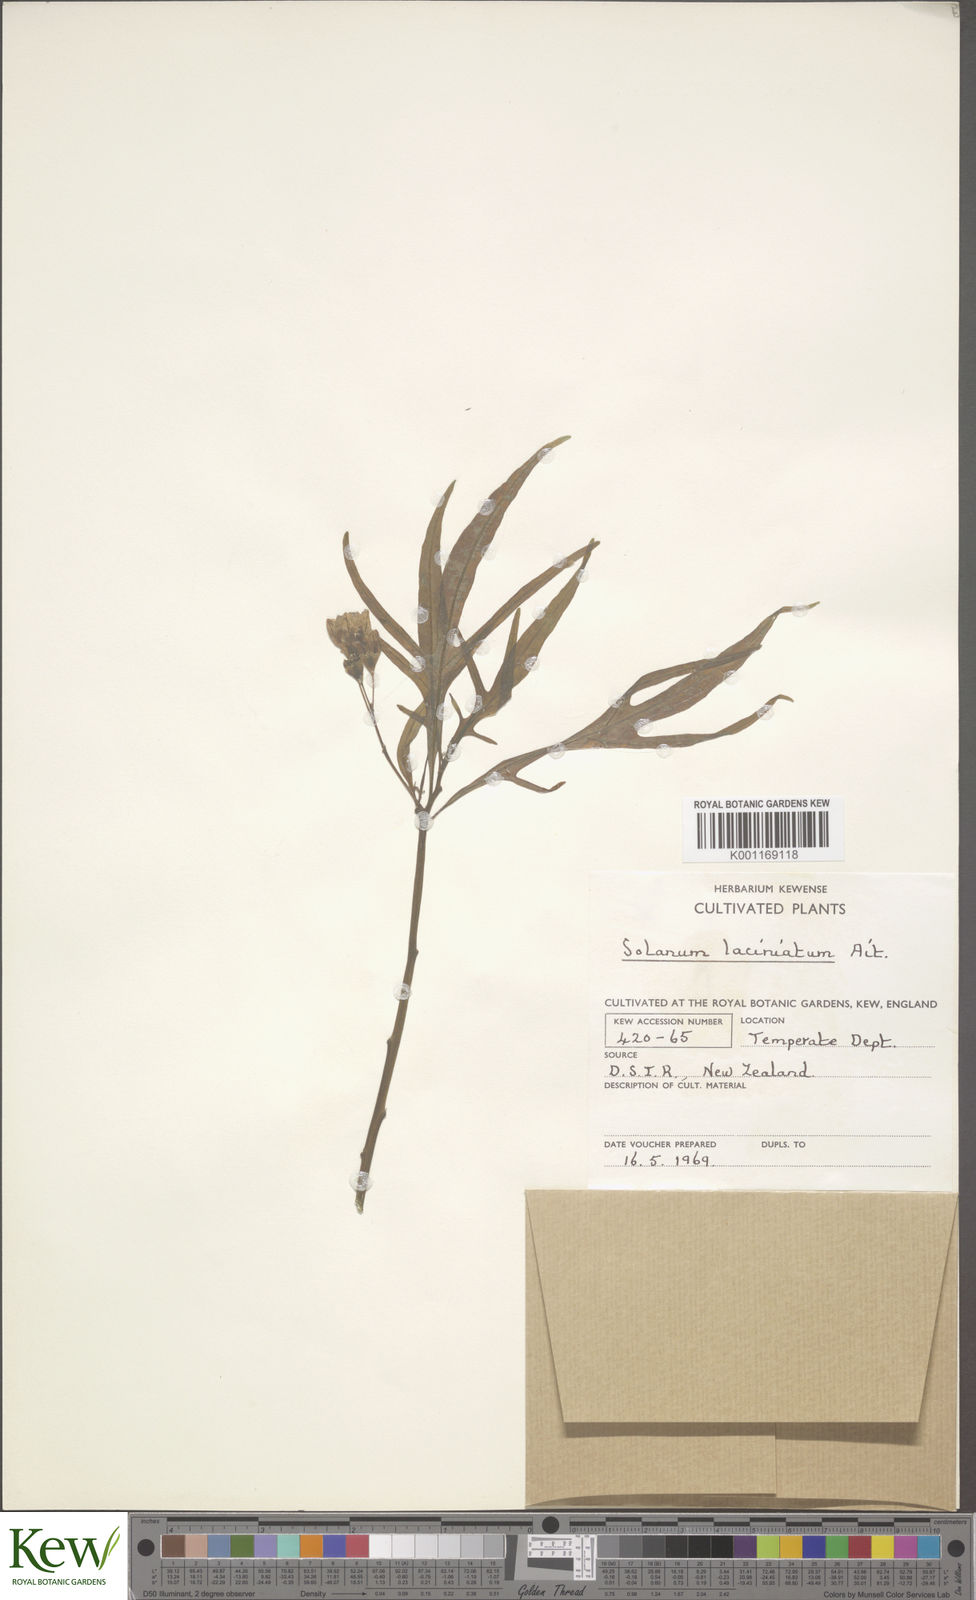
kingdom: Plantae
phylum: Tracheophyta
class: Magnoliopsida
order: Solanales
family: Solanaceae
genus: Solanum
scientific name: Solanum laciniatum
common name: Kangaroo-apple
